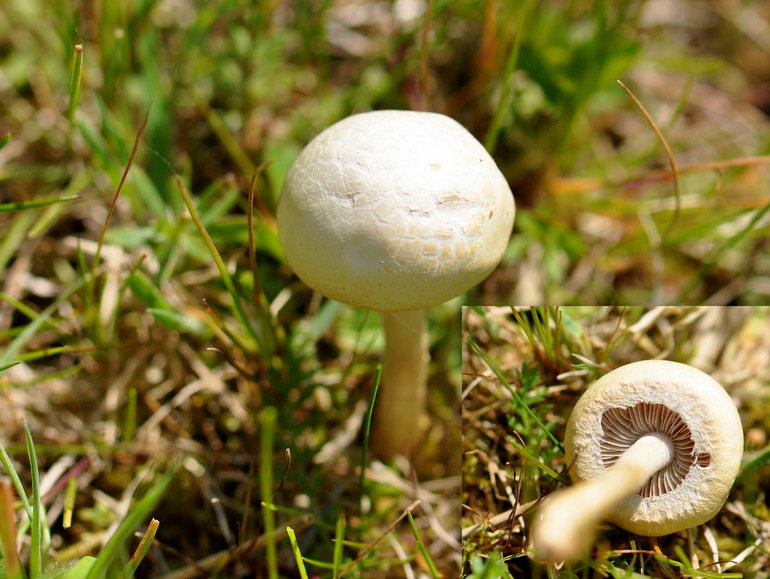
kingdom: Fungi
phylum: Basidiomycota
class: Agaricomycetes
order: Agaricales
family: Strophariaceae
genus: Agrocybe
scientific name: Agrocybe dura
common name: fastkødet agerhat
